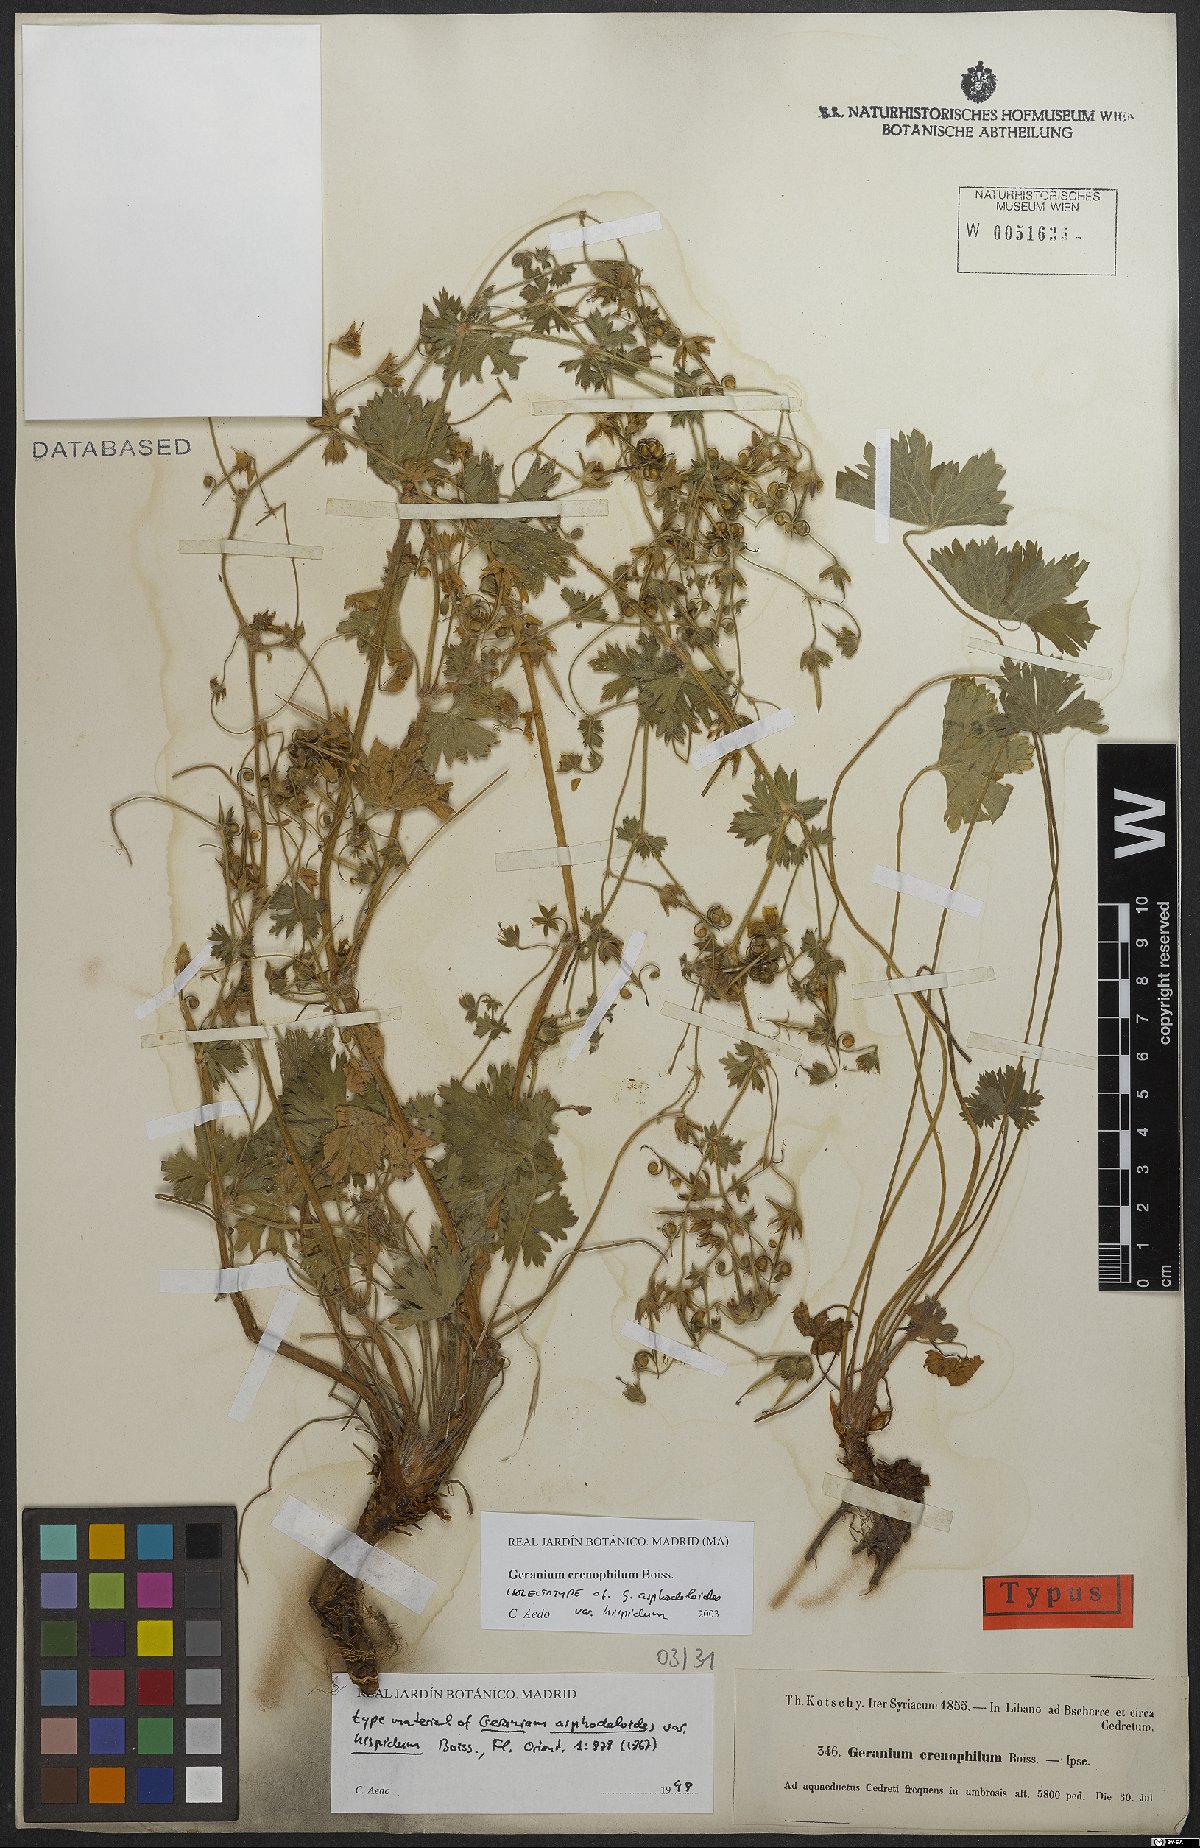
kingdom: Plantae
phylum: Tracheophyta
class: Magnoliopsida
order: Geraniales
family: Geraniaceae
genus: Geranium
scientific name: Geranium crenophilum
